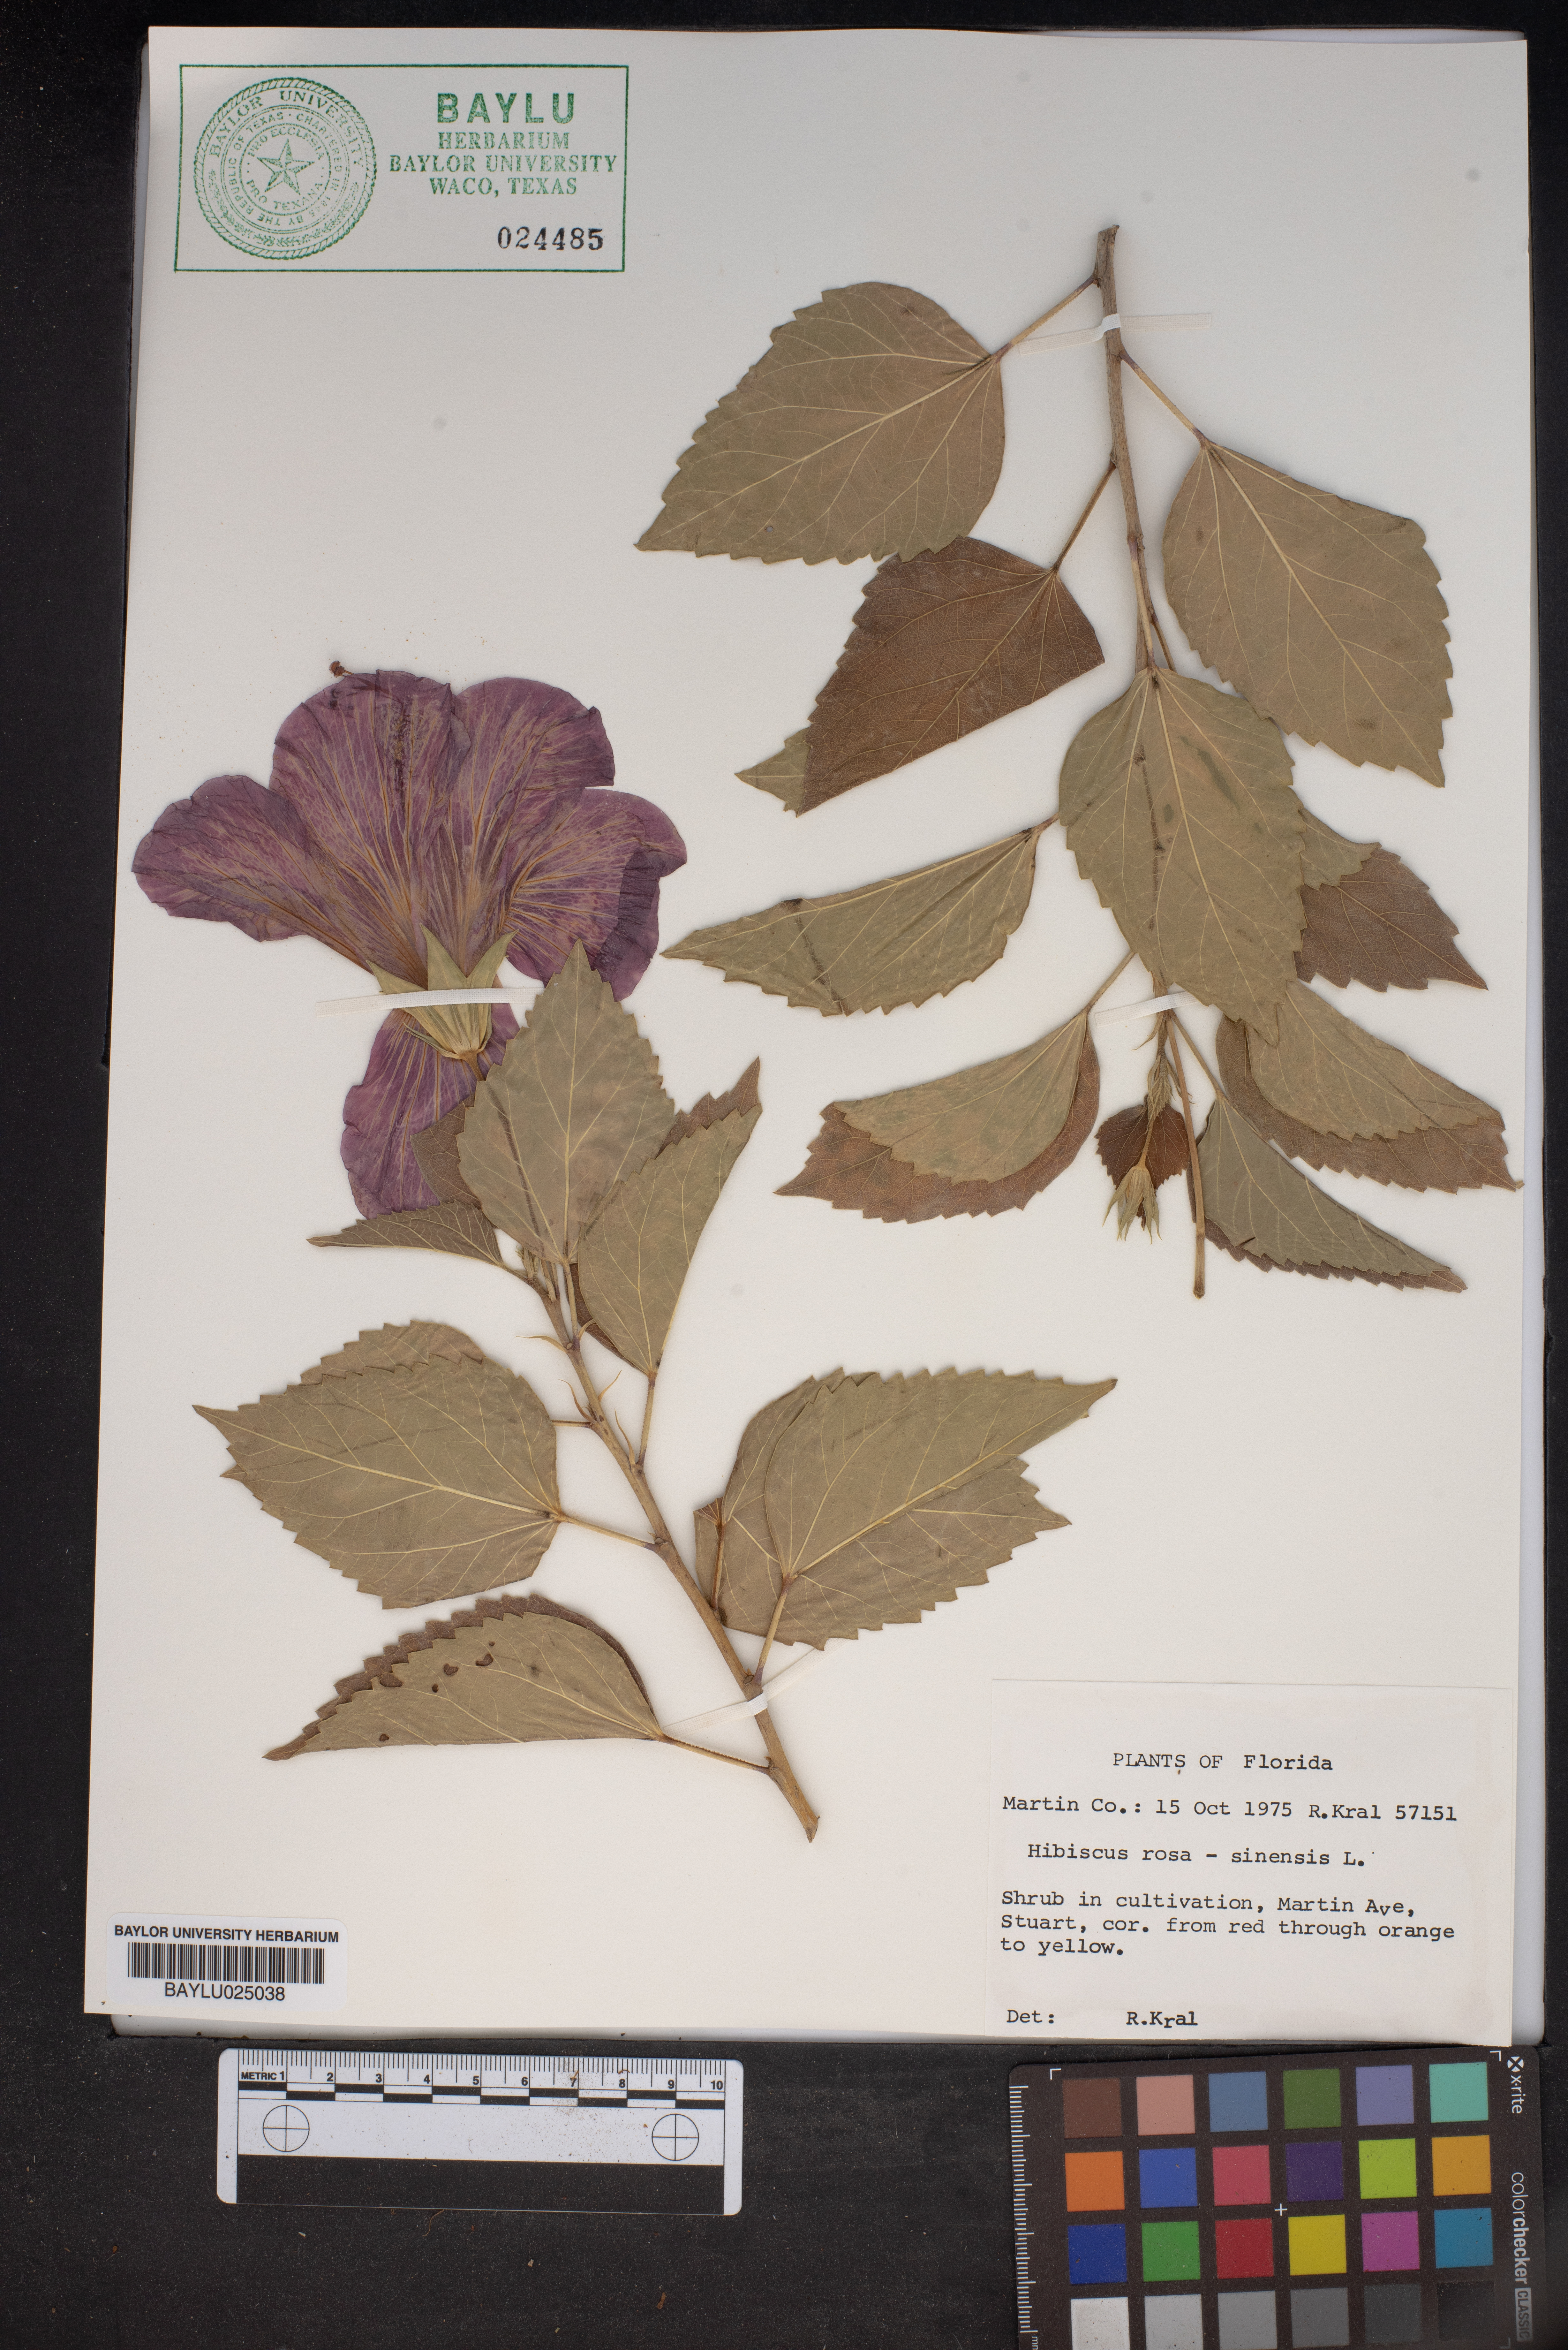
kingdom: Plantae
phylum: Tracheophyta
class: Magnoliopsida
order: Malvales
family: Malvaceae
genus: Hibiscus
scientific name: Hibiscus rosa-sinensis
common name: Hibiscus
